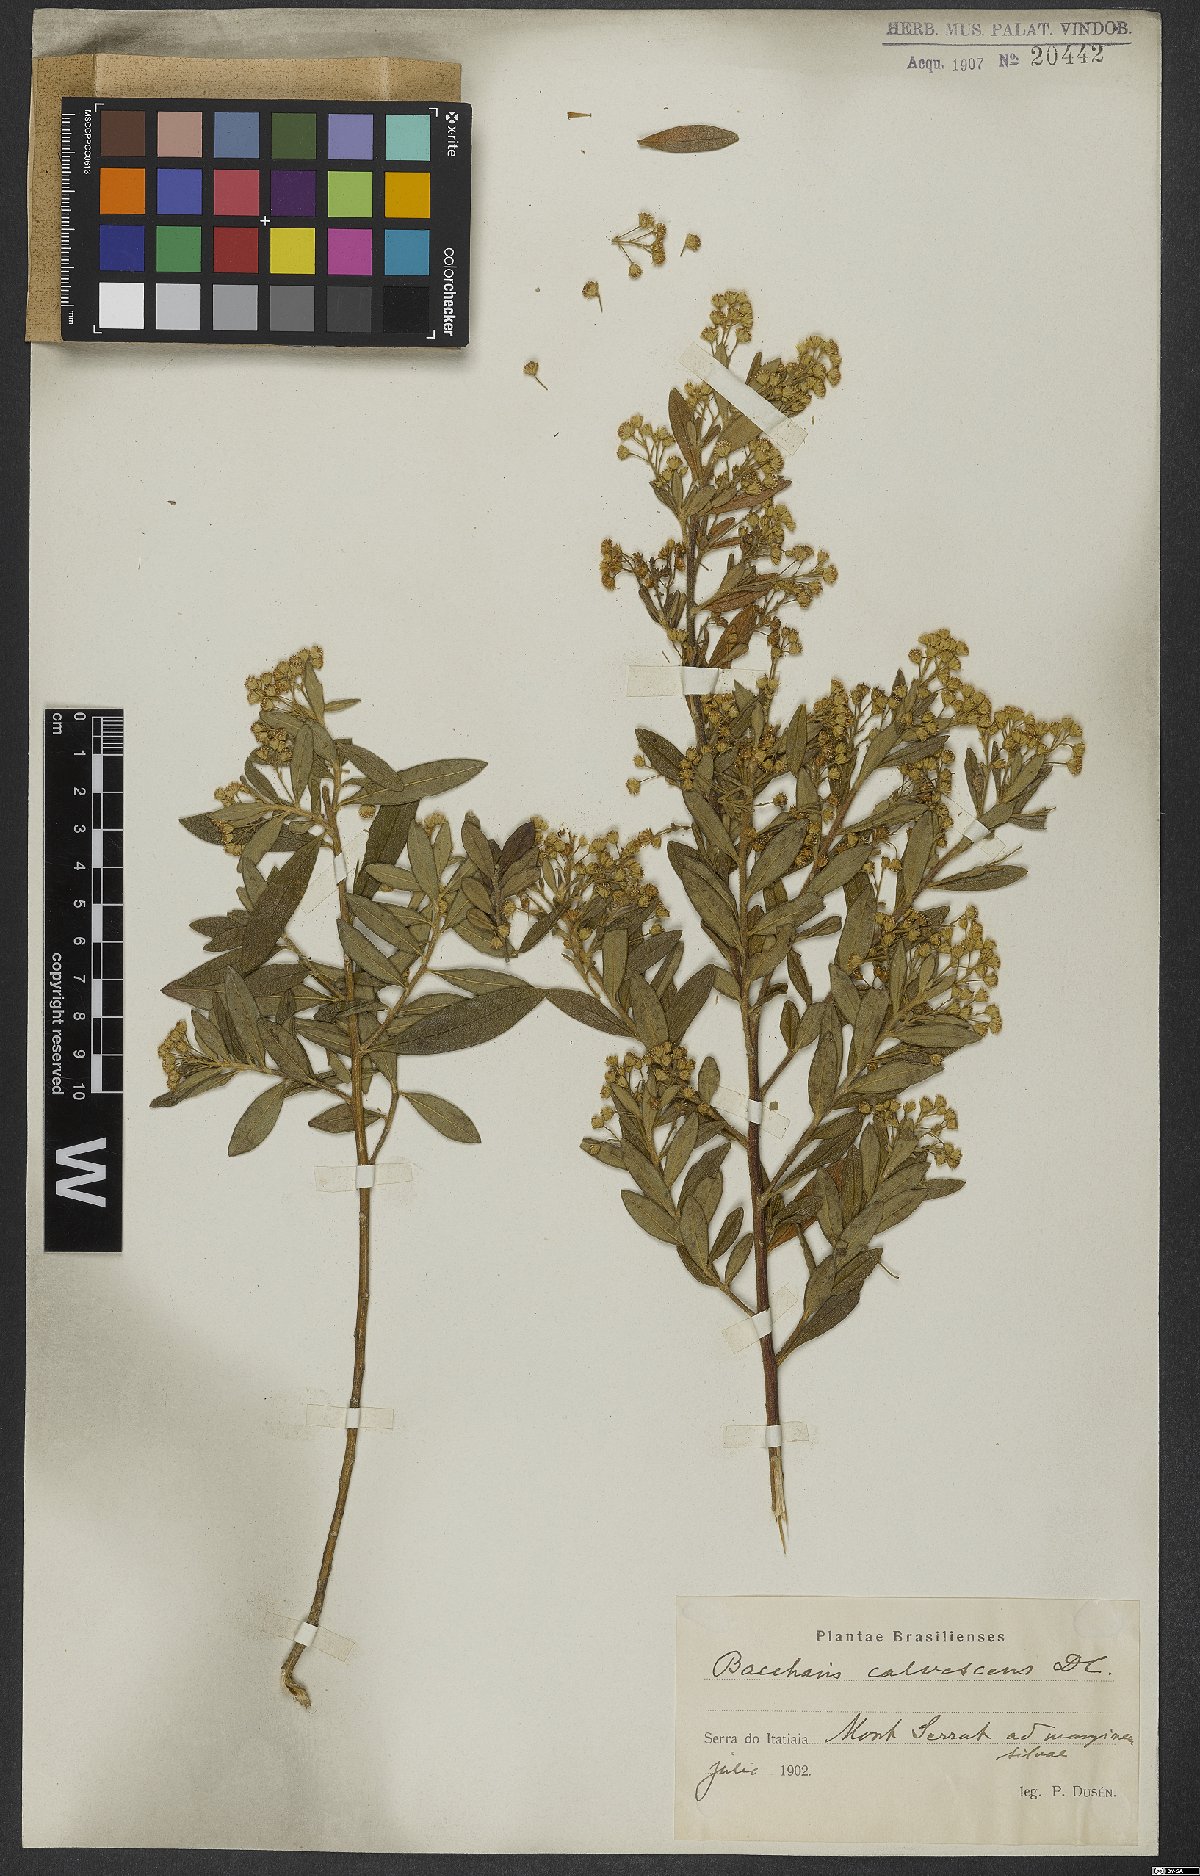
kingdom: Plantae
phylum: Tracheophyta
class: Magnoliopsida
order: Asterales
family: Asteraceae
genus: Baccharis
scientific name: Baccharis calvescens
